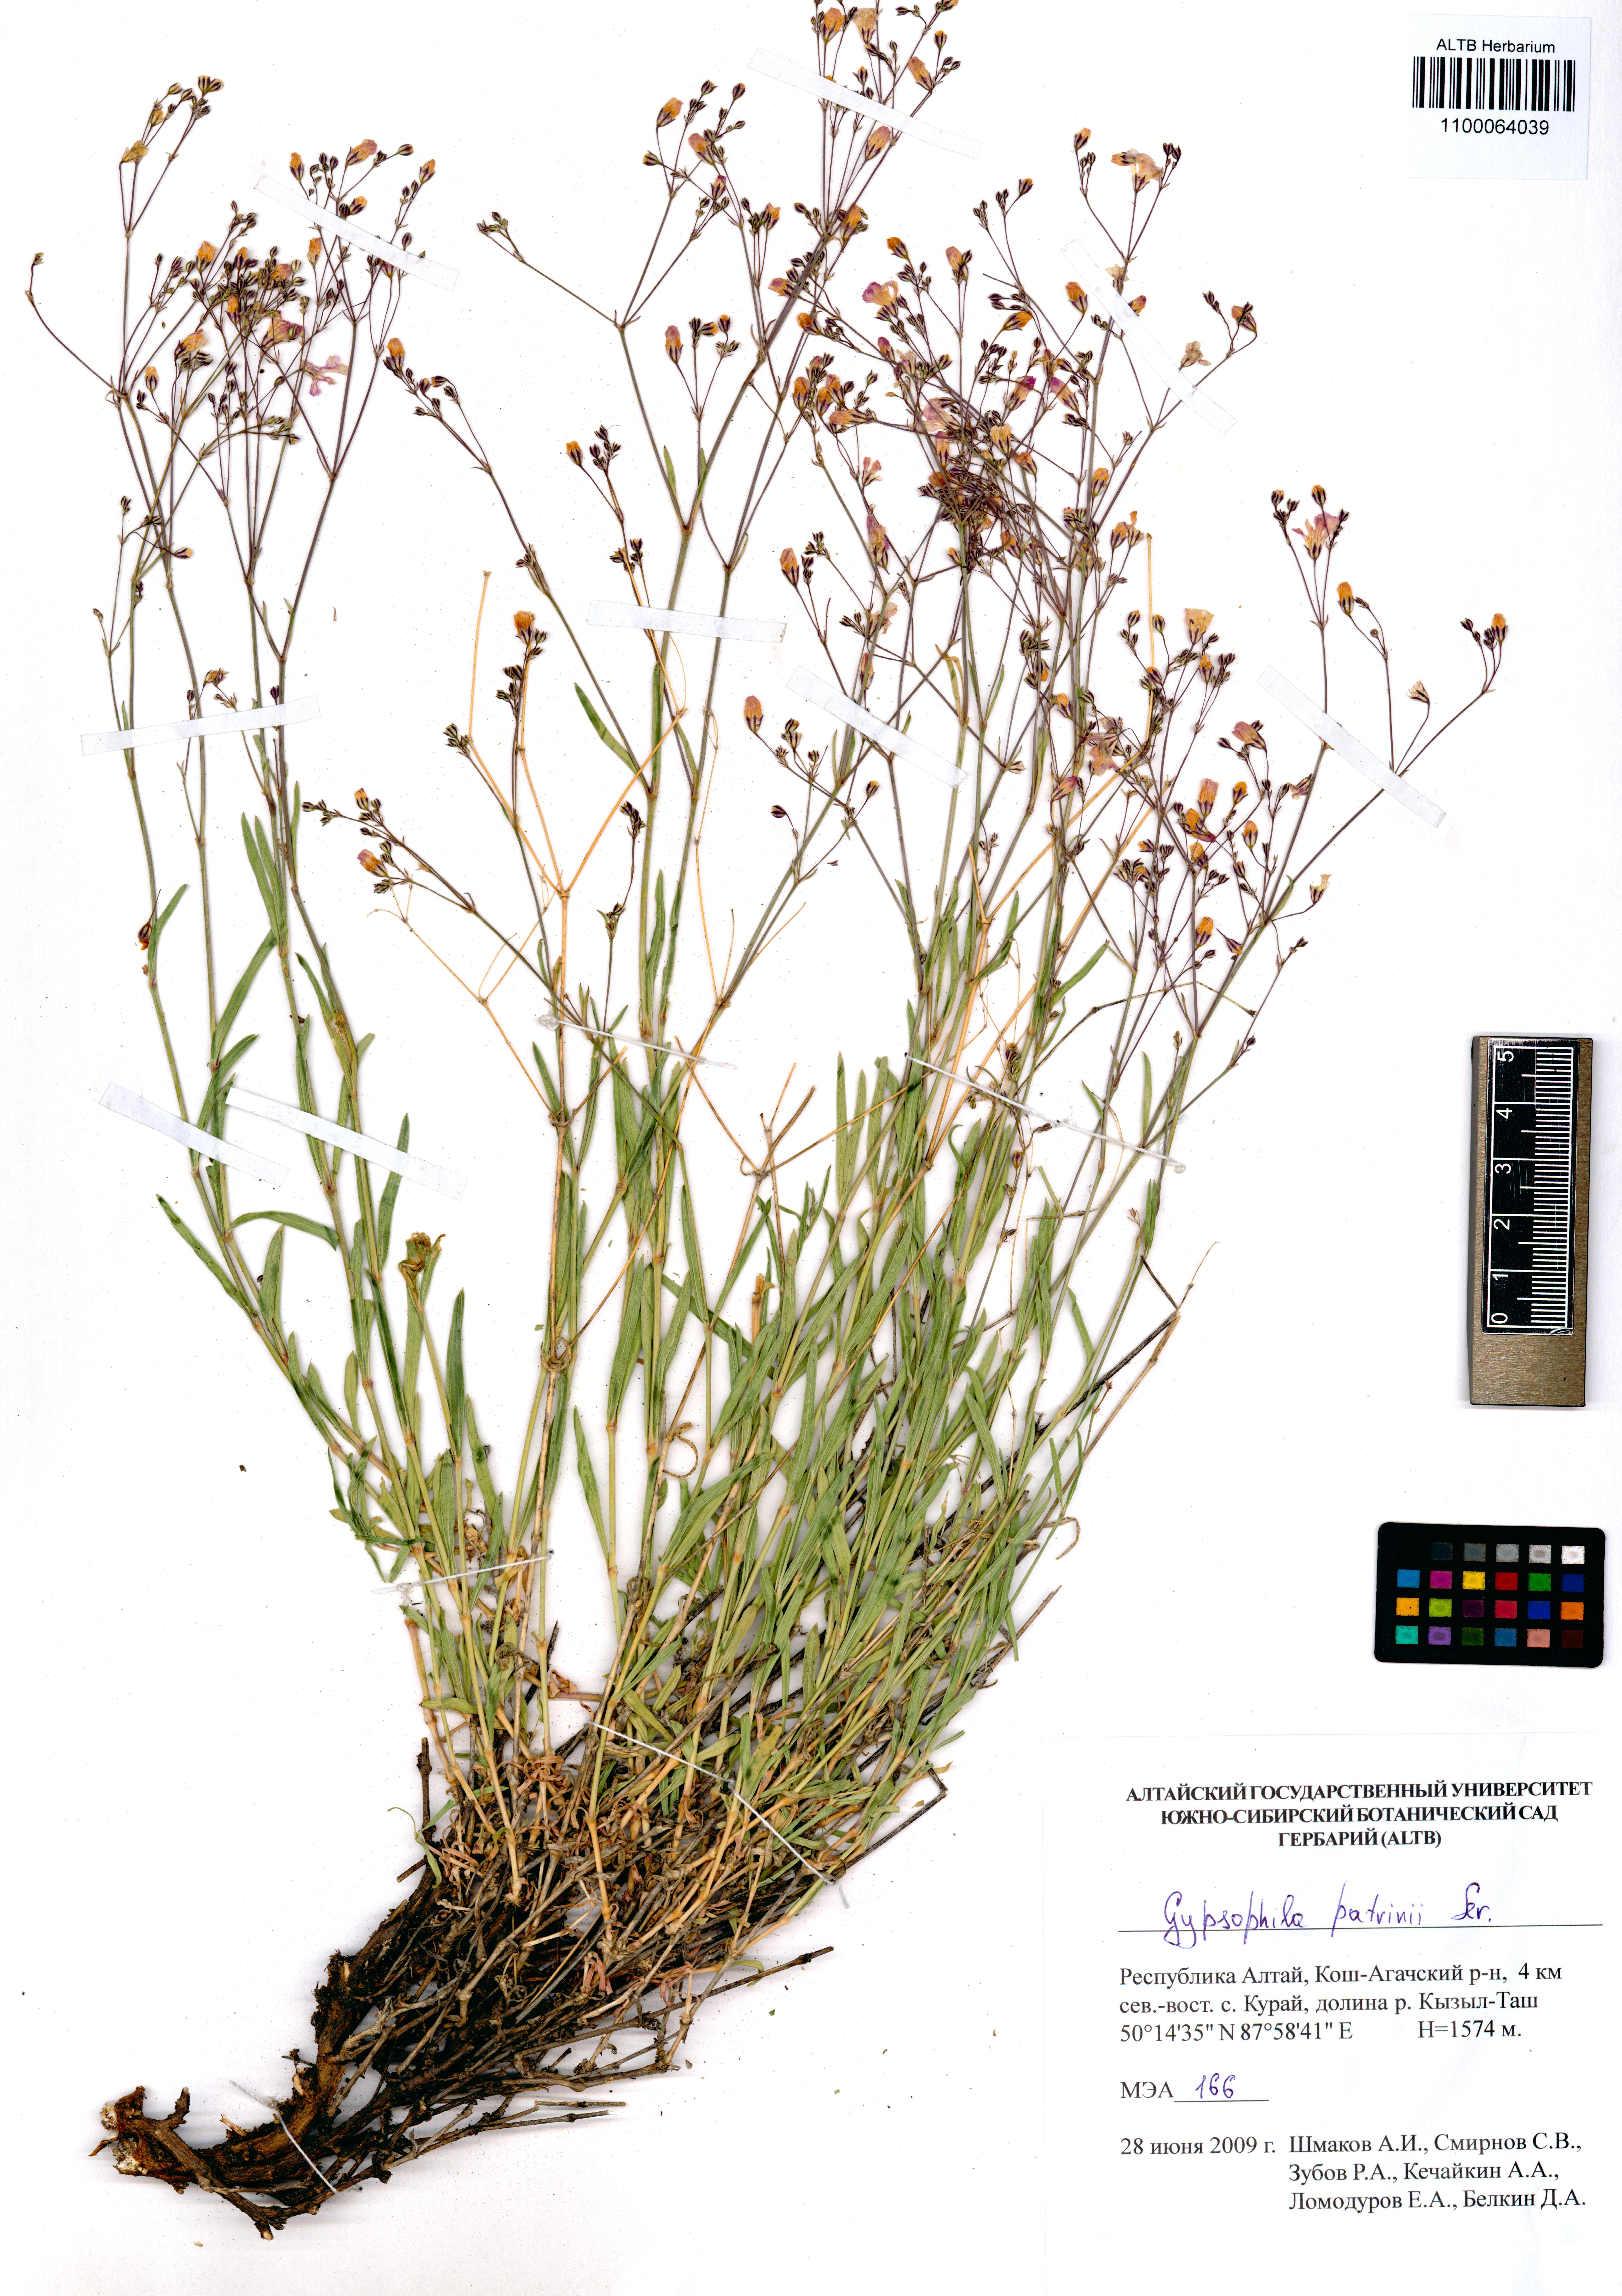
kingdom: Plantae
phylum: Tracheophyta
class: Magnoliopsida
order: Caryophyllales
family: Caryophyllaceae
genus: Gypsophila
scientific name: Gypsophila patrinii
